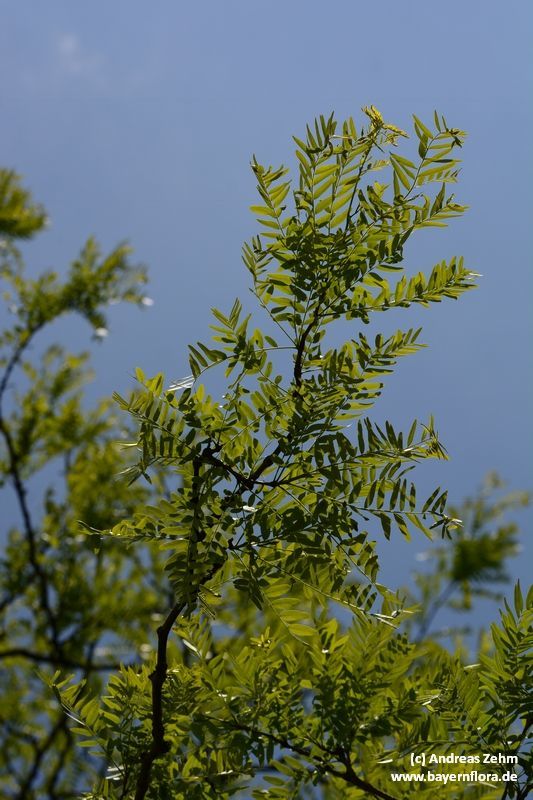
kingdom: Plantae
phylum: Tracheophyta
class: Magnoliopsida
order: Fabales
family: Fabaceae
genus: Gleditsia
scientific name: Gleditsia triacanthos
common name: Common honeylocust
